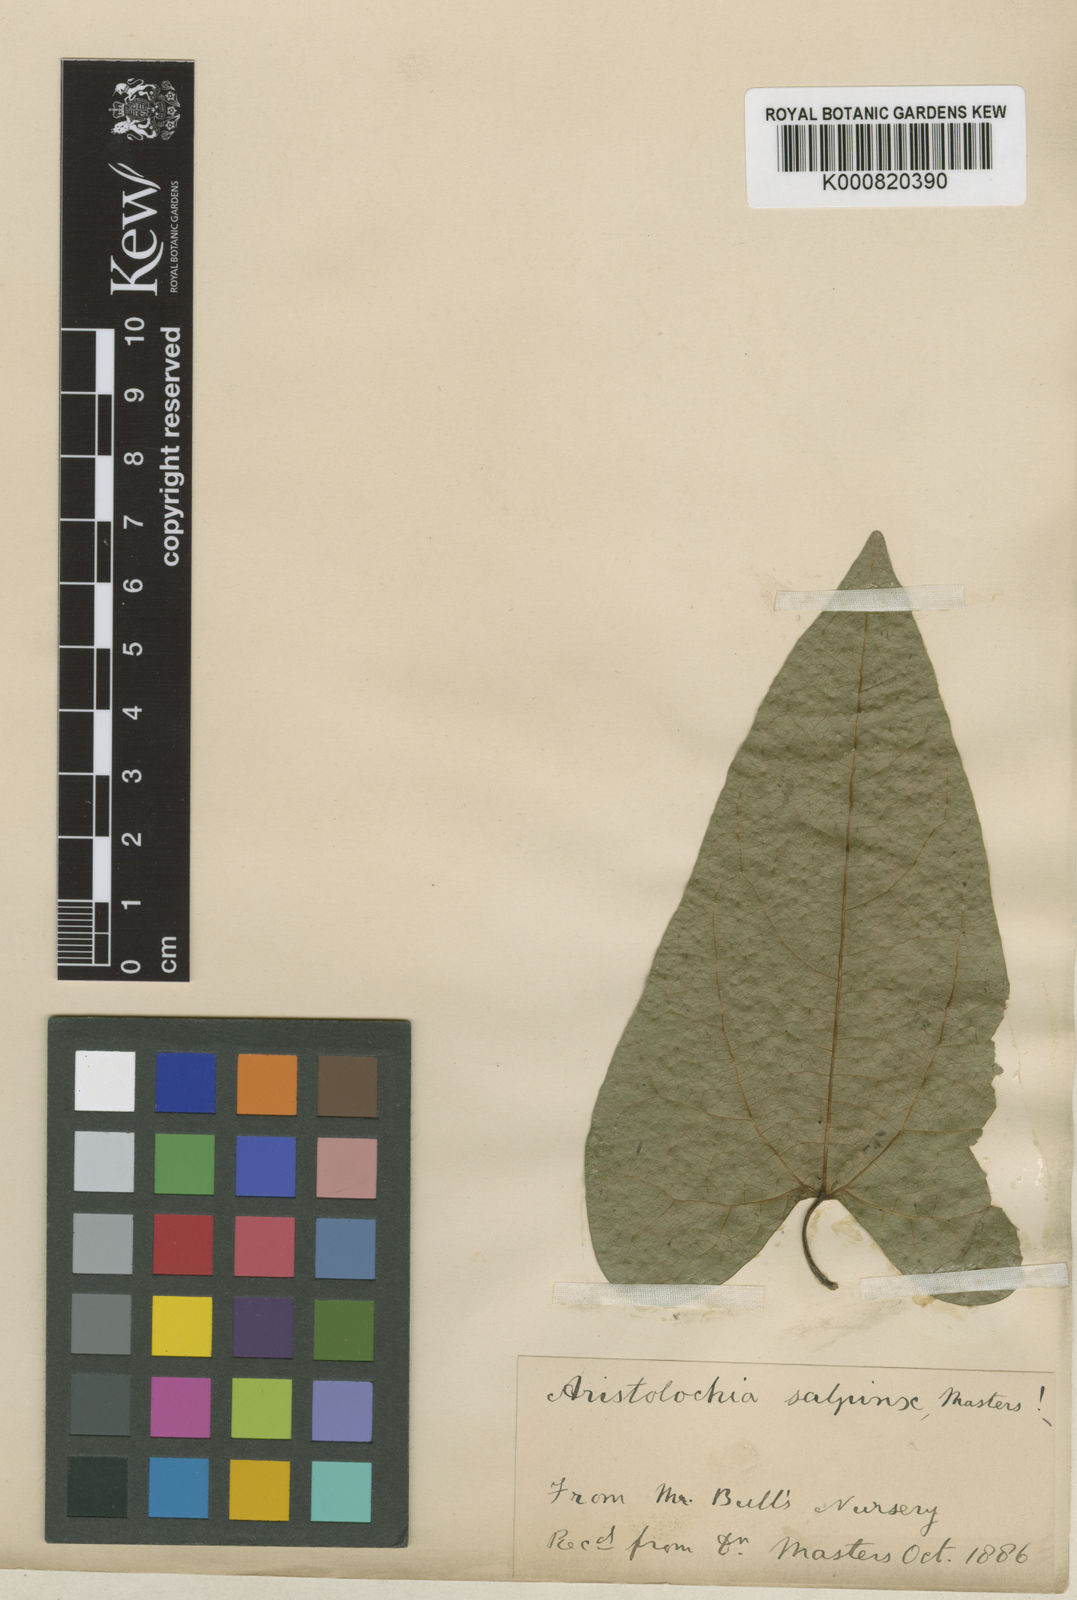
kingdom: Plantae
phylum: Tracheophyta
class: Magnoliopsida
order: Piperales
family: Aristolochiaceae
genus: Aristolochia
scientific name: Aristolochia triangularis
